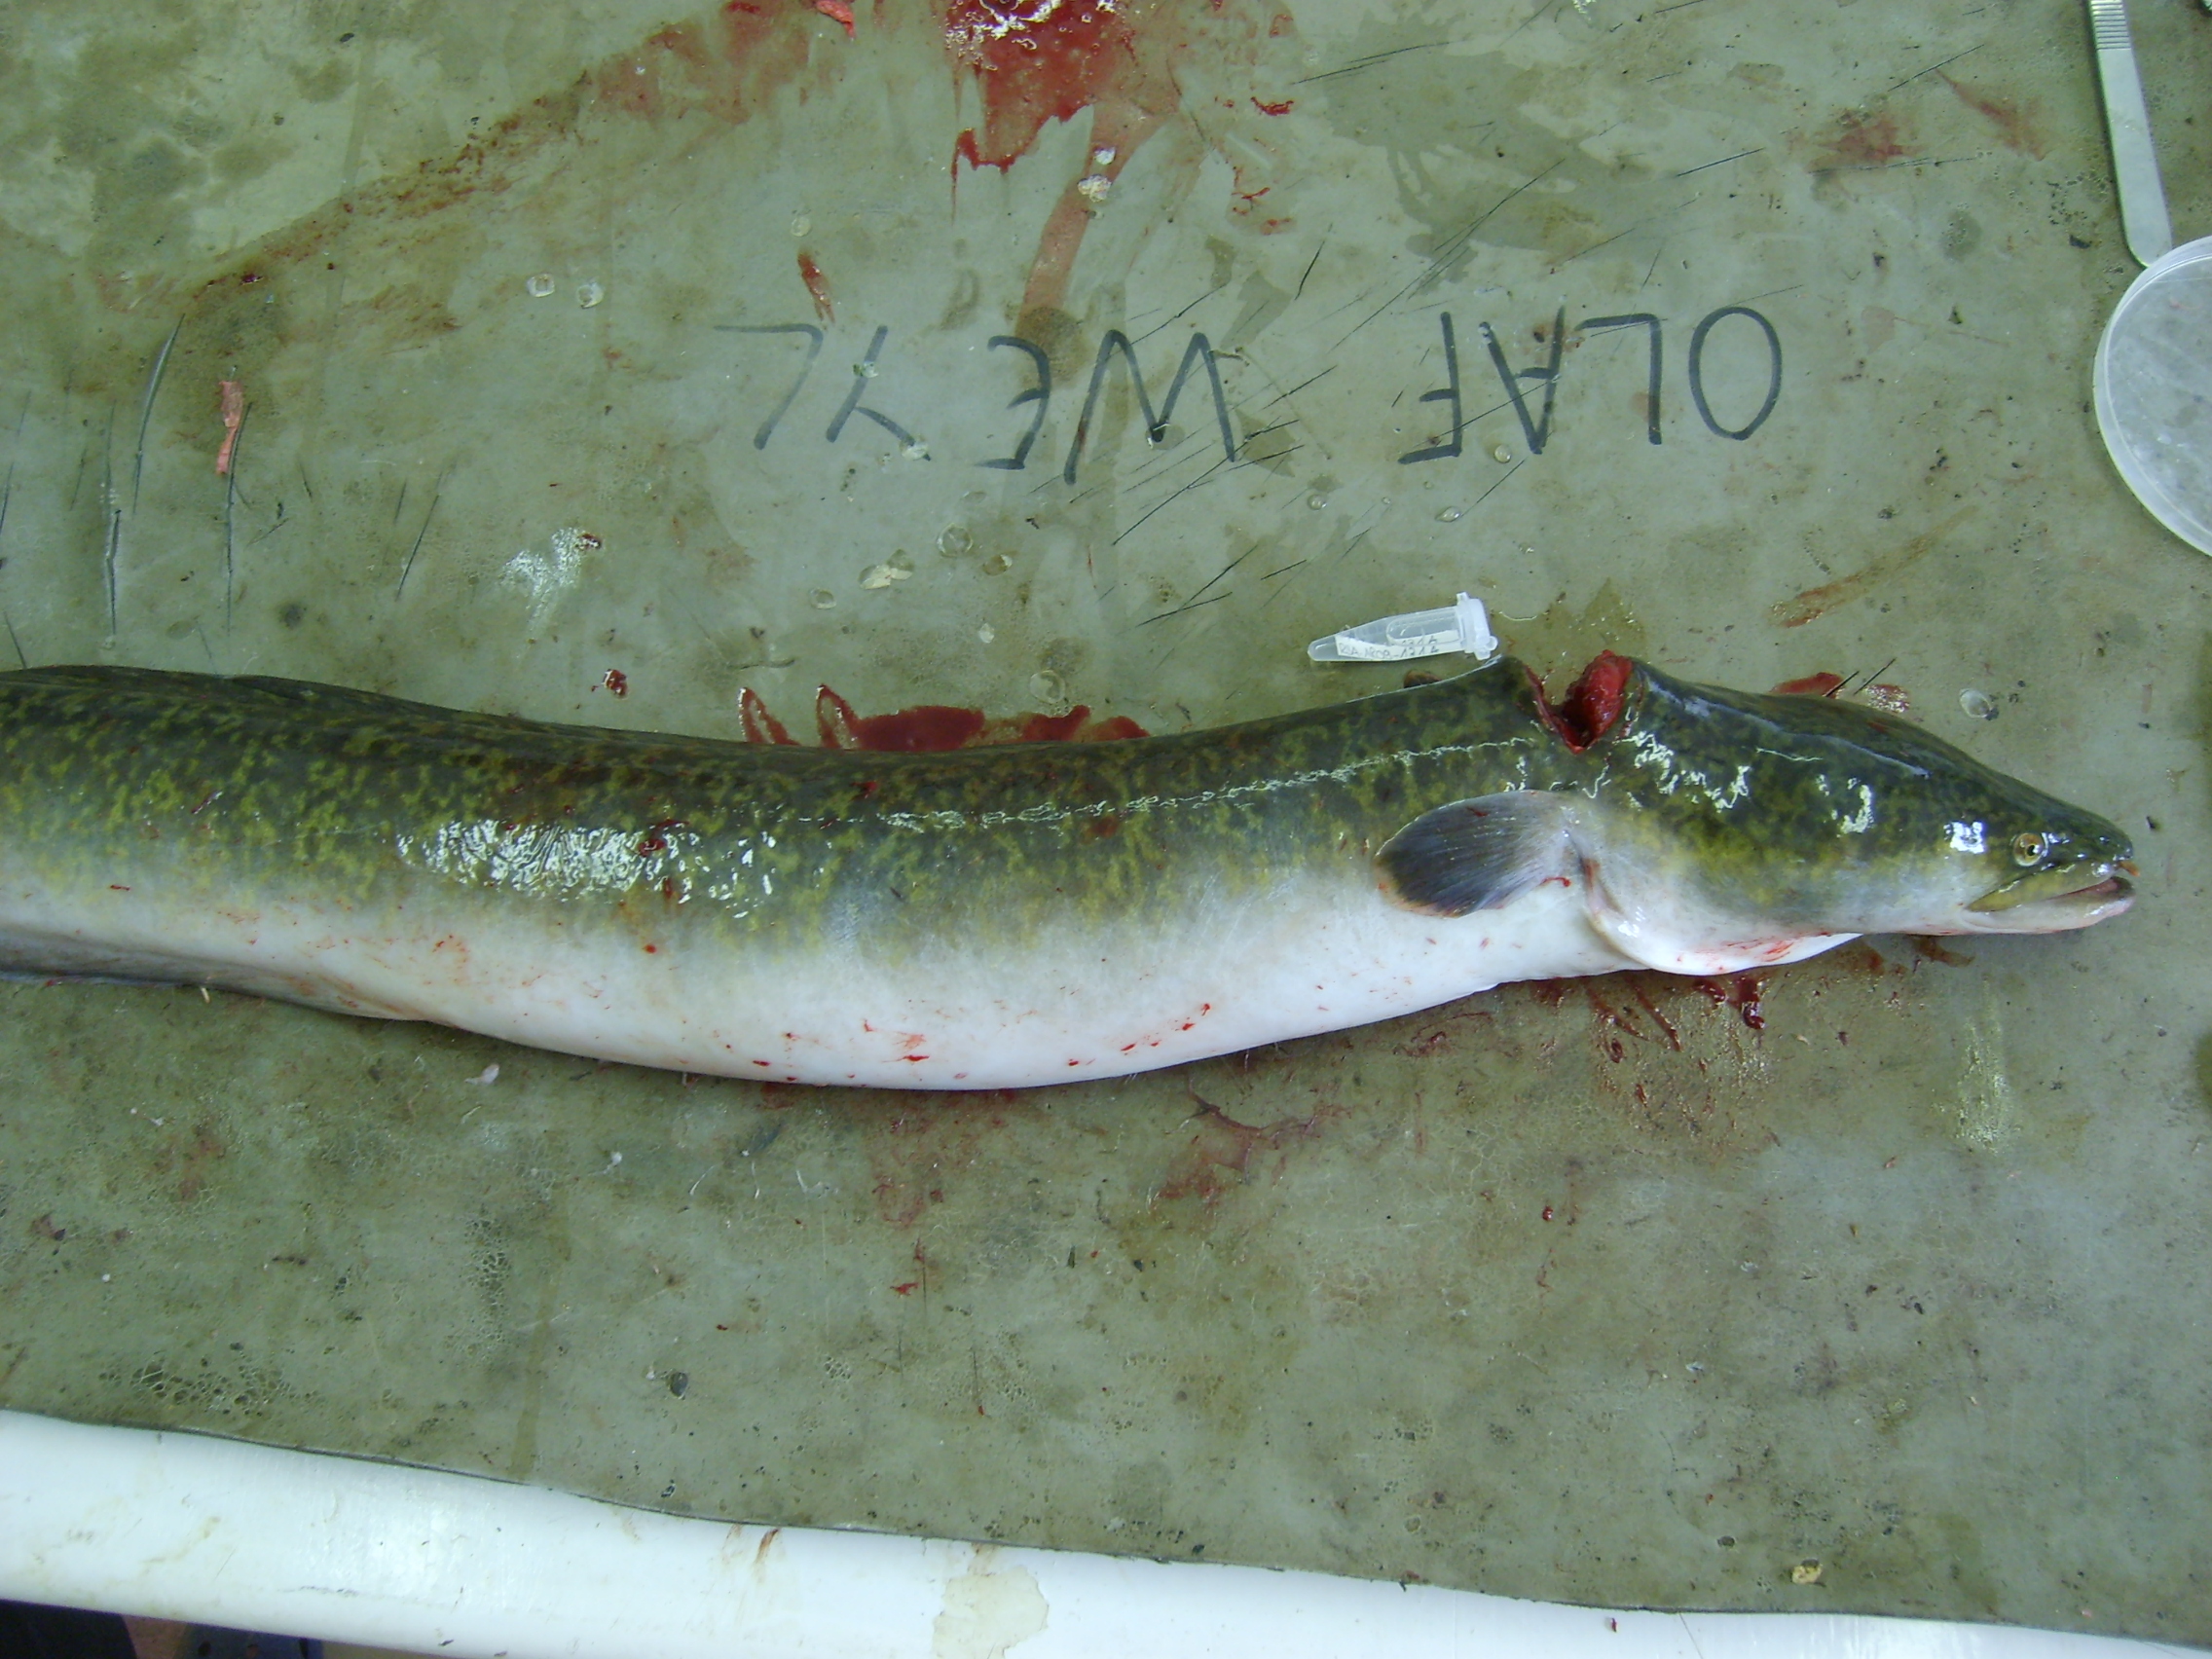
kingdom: Animalia
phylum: Chordata
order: Anguilliformes
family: Anguillidae
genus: Anguilla
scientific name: Anguilla marmorata
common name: Giant mottled eel
